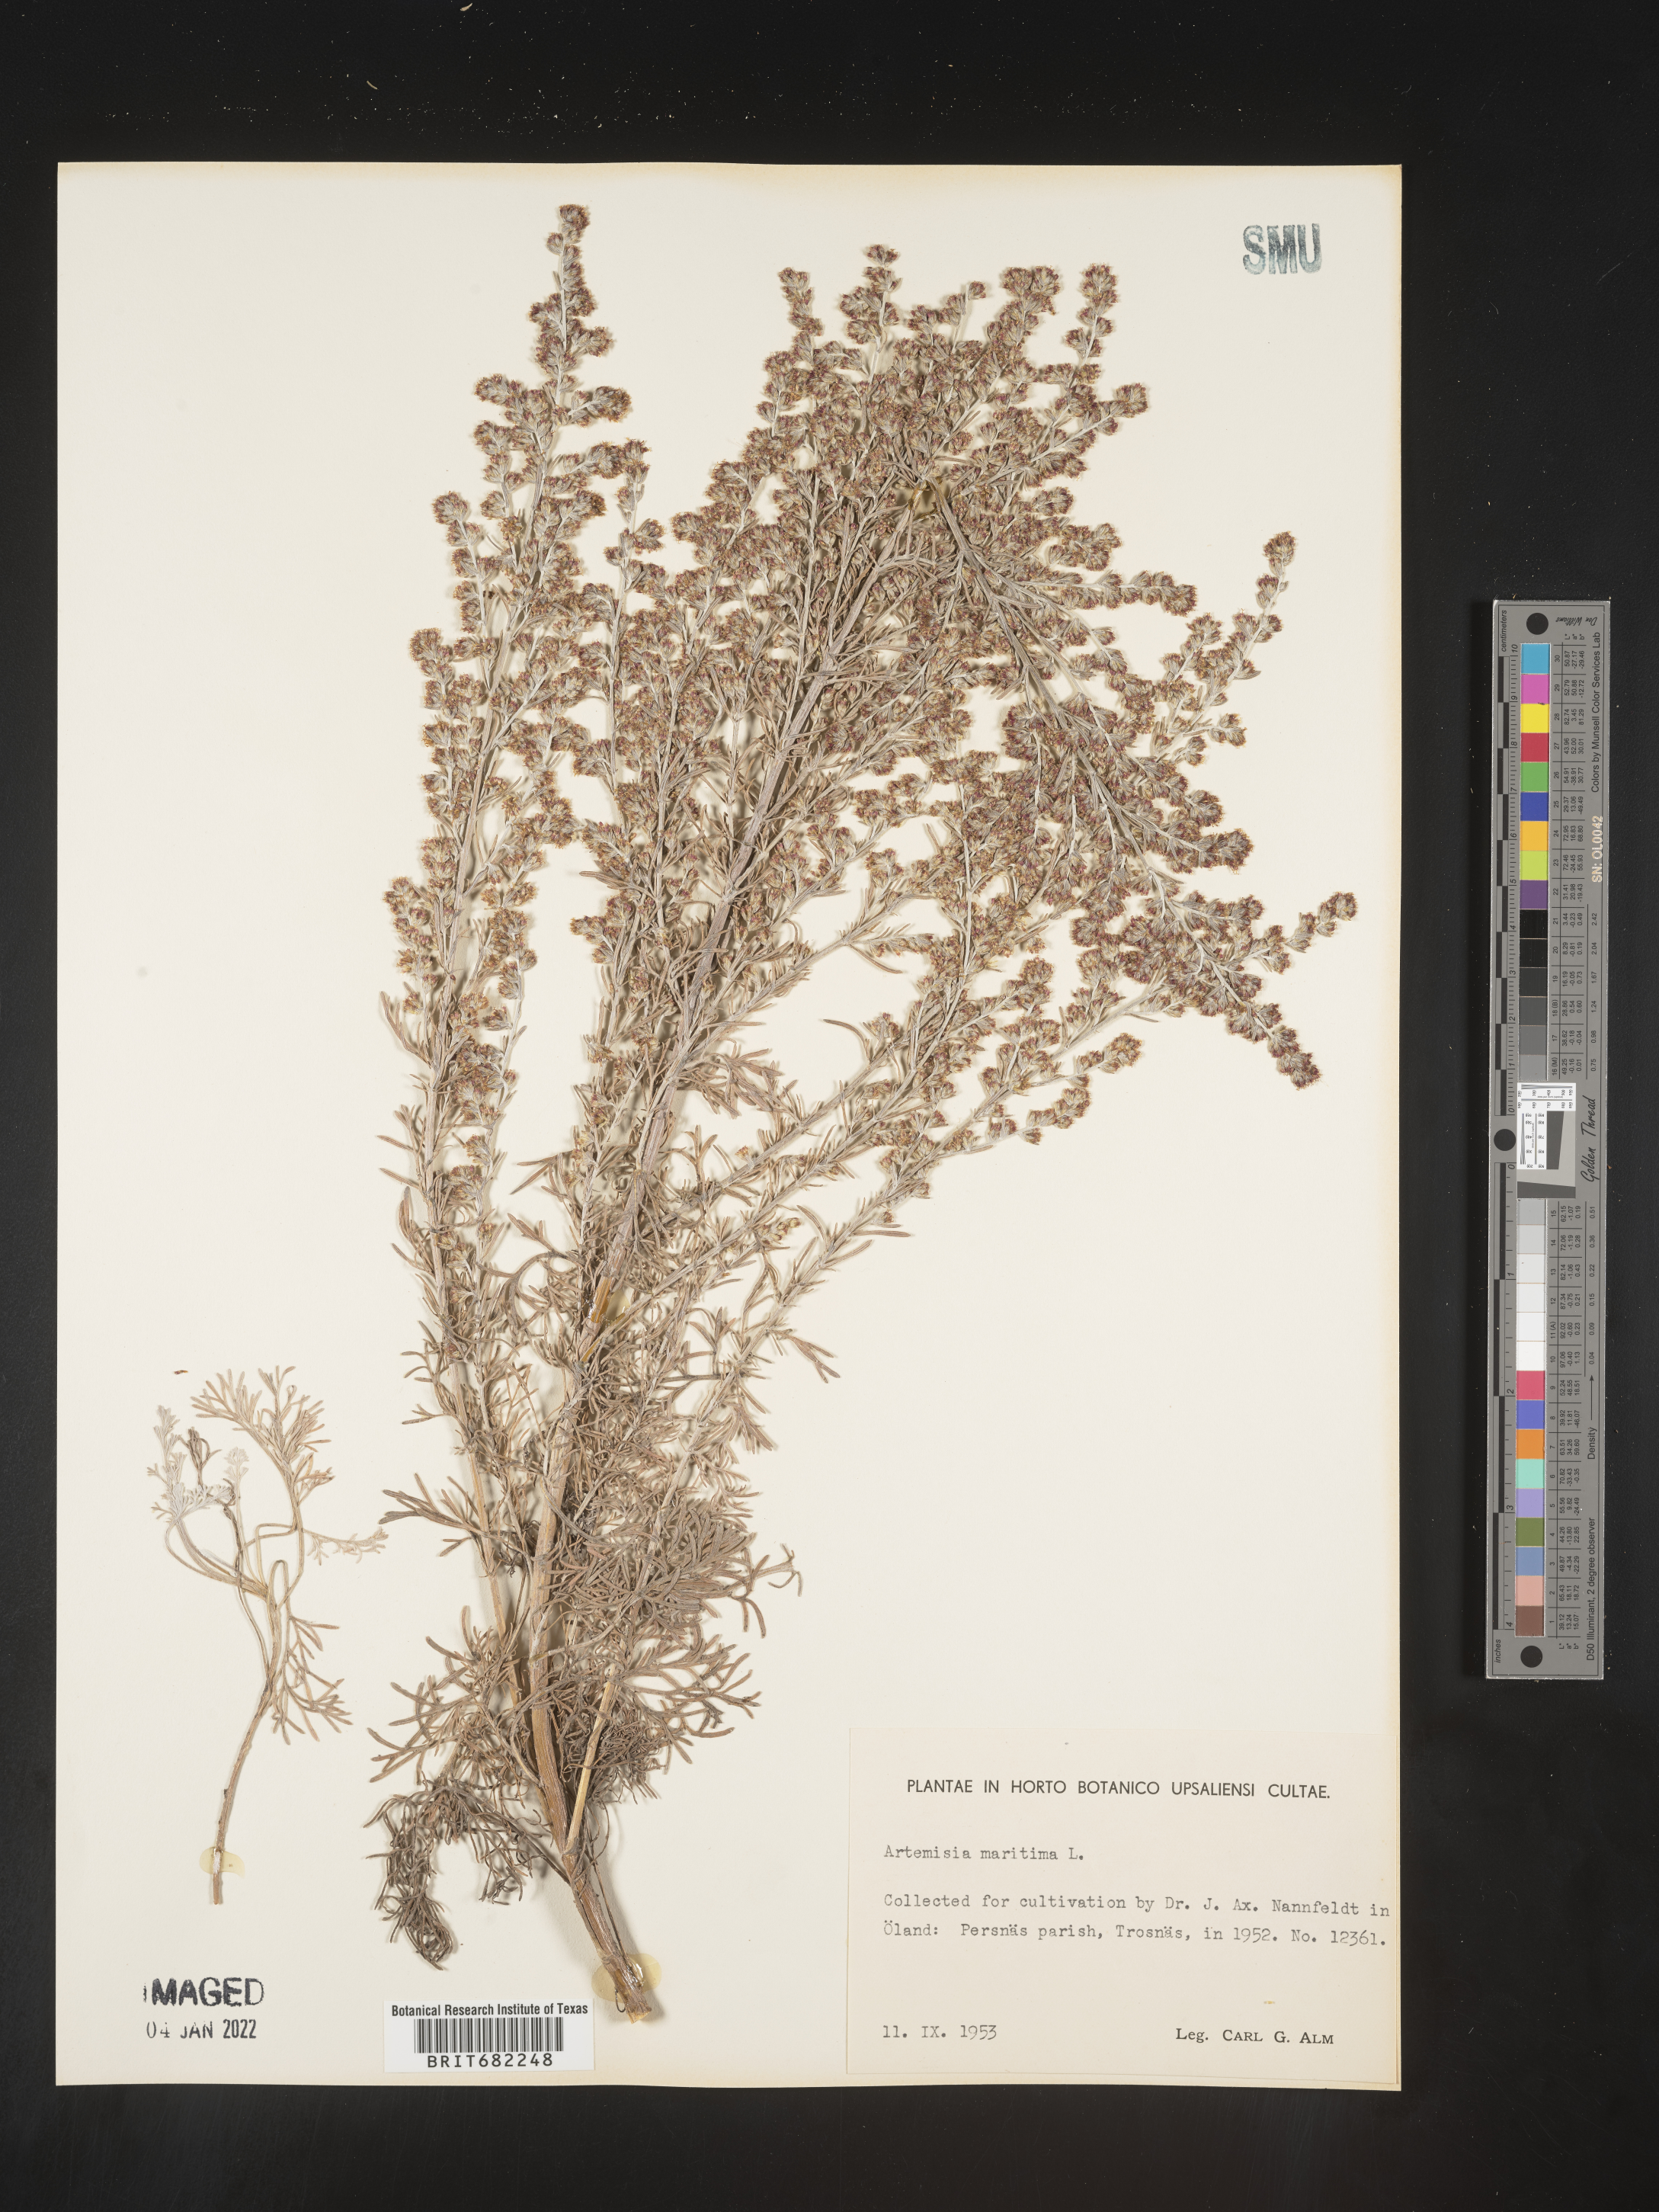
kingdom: Plantae
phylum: Tracheophyta
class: Magnoliopsida
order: Asterales
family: Asteraceae
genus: Artemisia
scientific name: Artemisia
